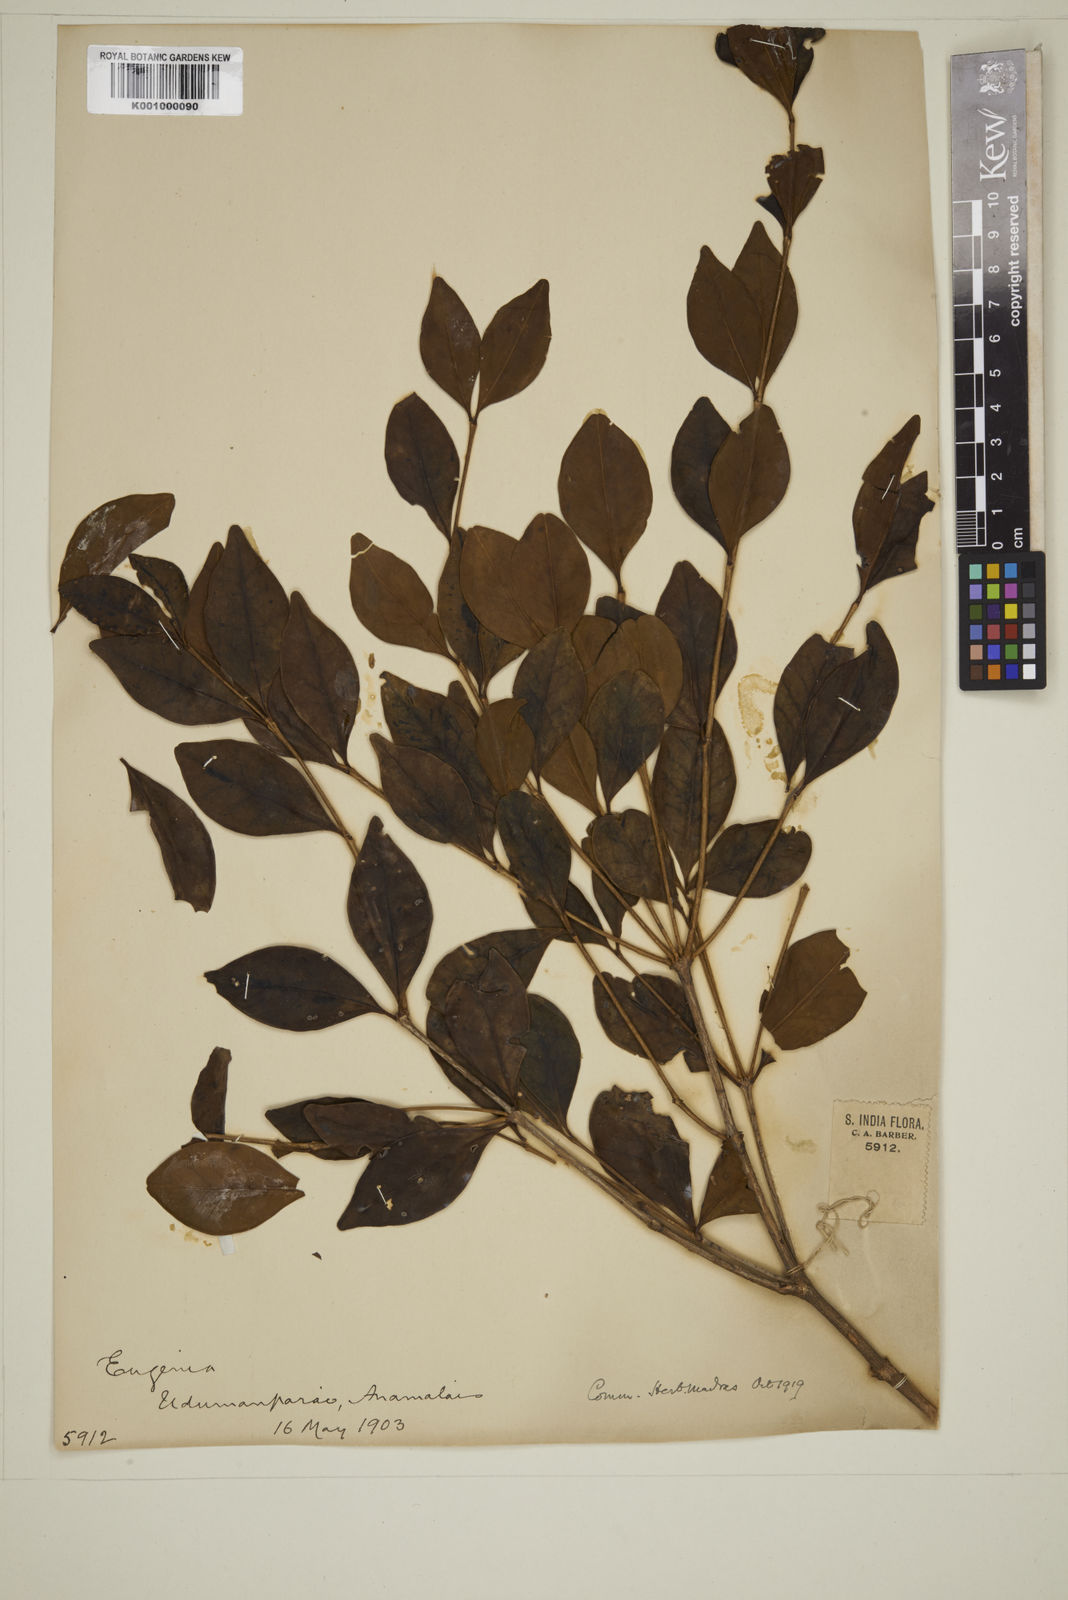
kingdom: Plantae
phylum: Tracheophyta
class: Magnoliopsida
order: Myrtales
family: Myrtaceae
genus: Eugenia
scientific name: Eugenia thwaitesii
